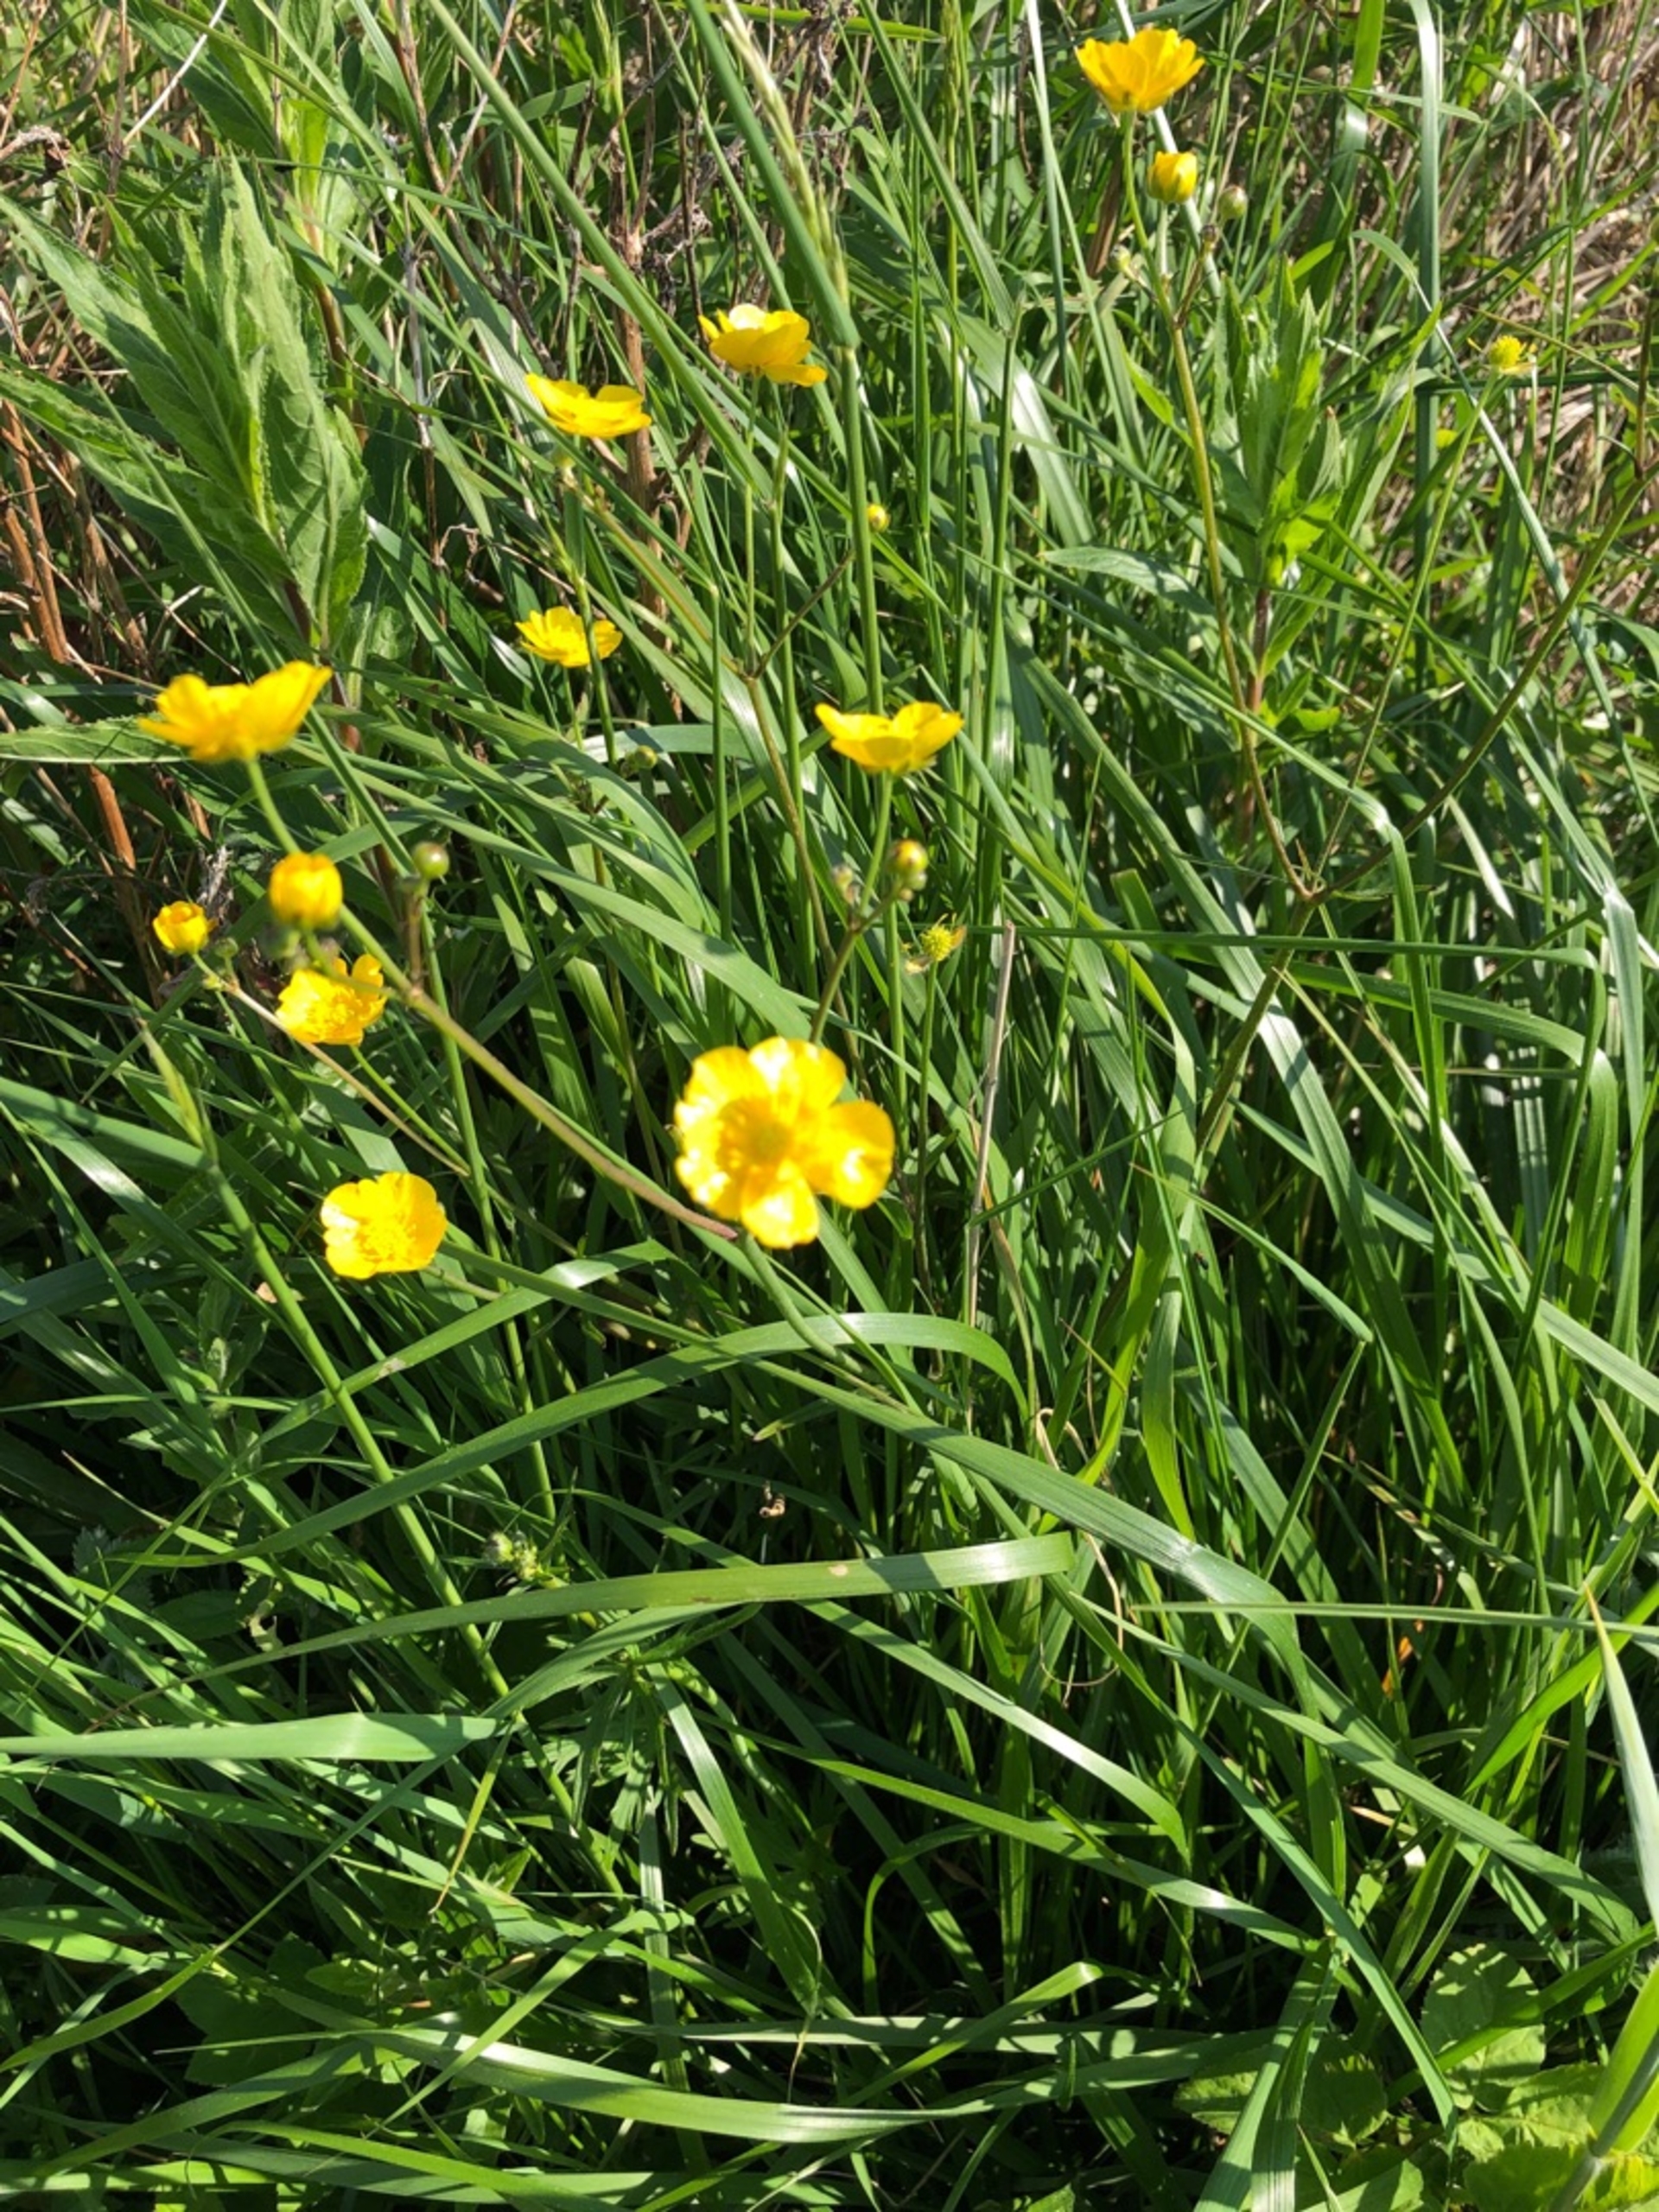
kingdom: Plantae
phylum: Tracheophyta
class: Magnoliopsida
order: Ranunculales
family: Ranunculaceae
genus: Ranunculus
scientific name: Ranunculus acris
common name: Bidende ranunkel
